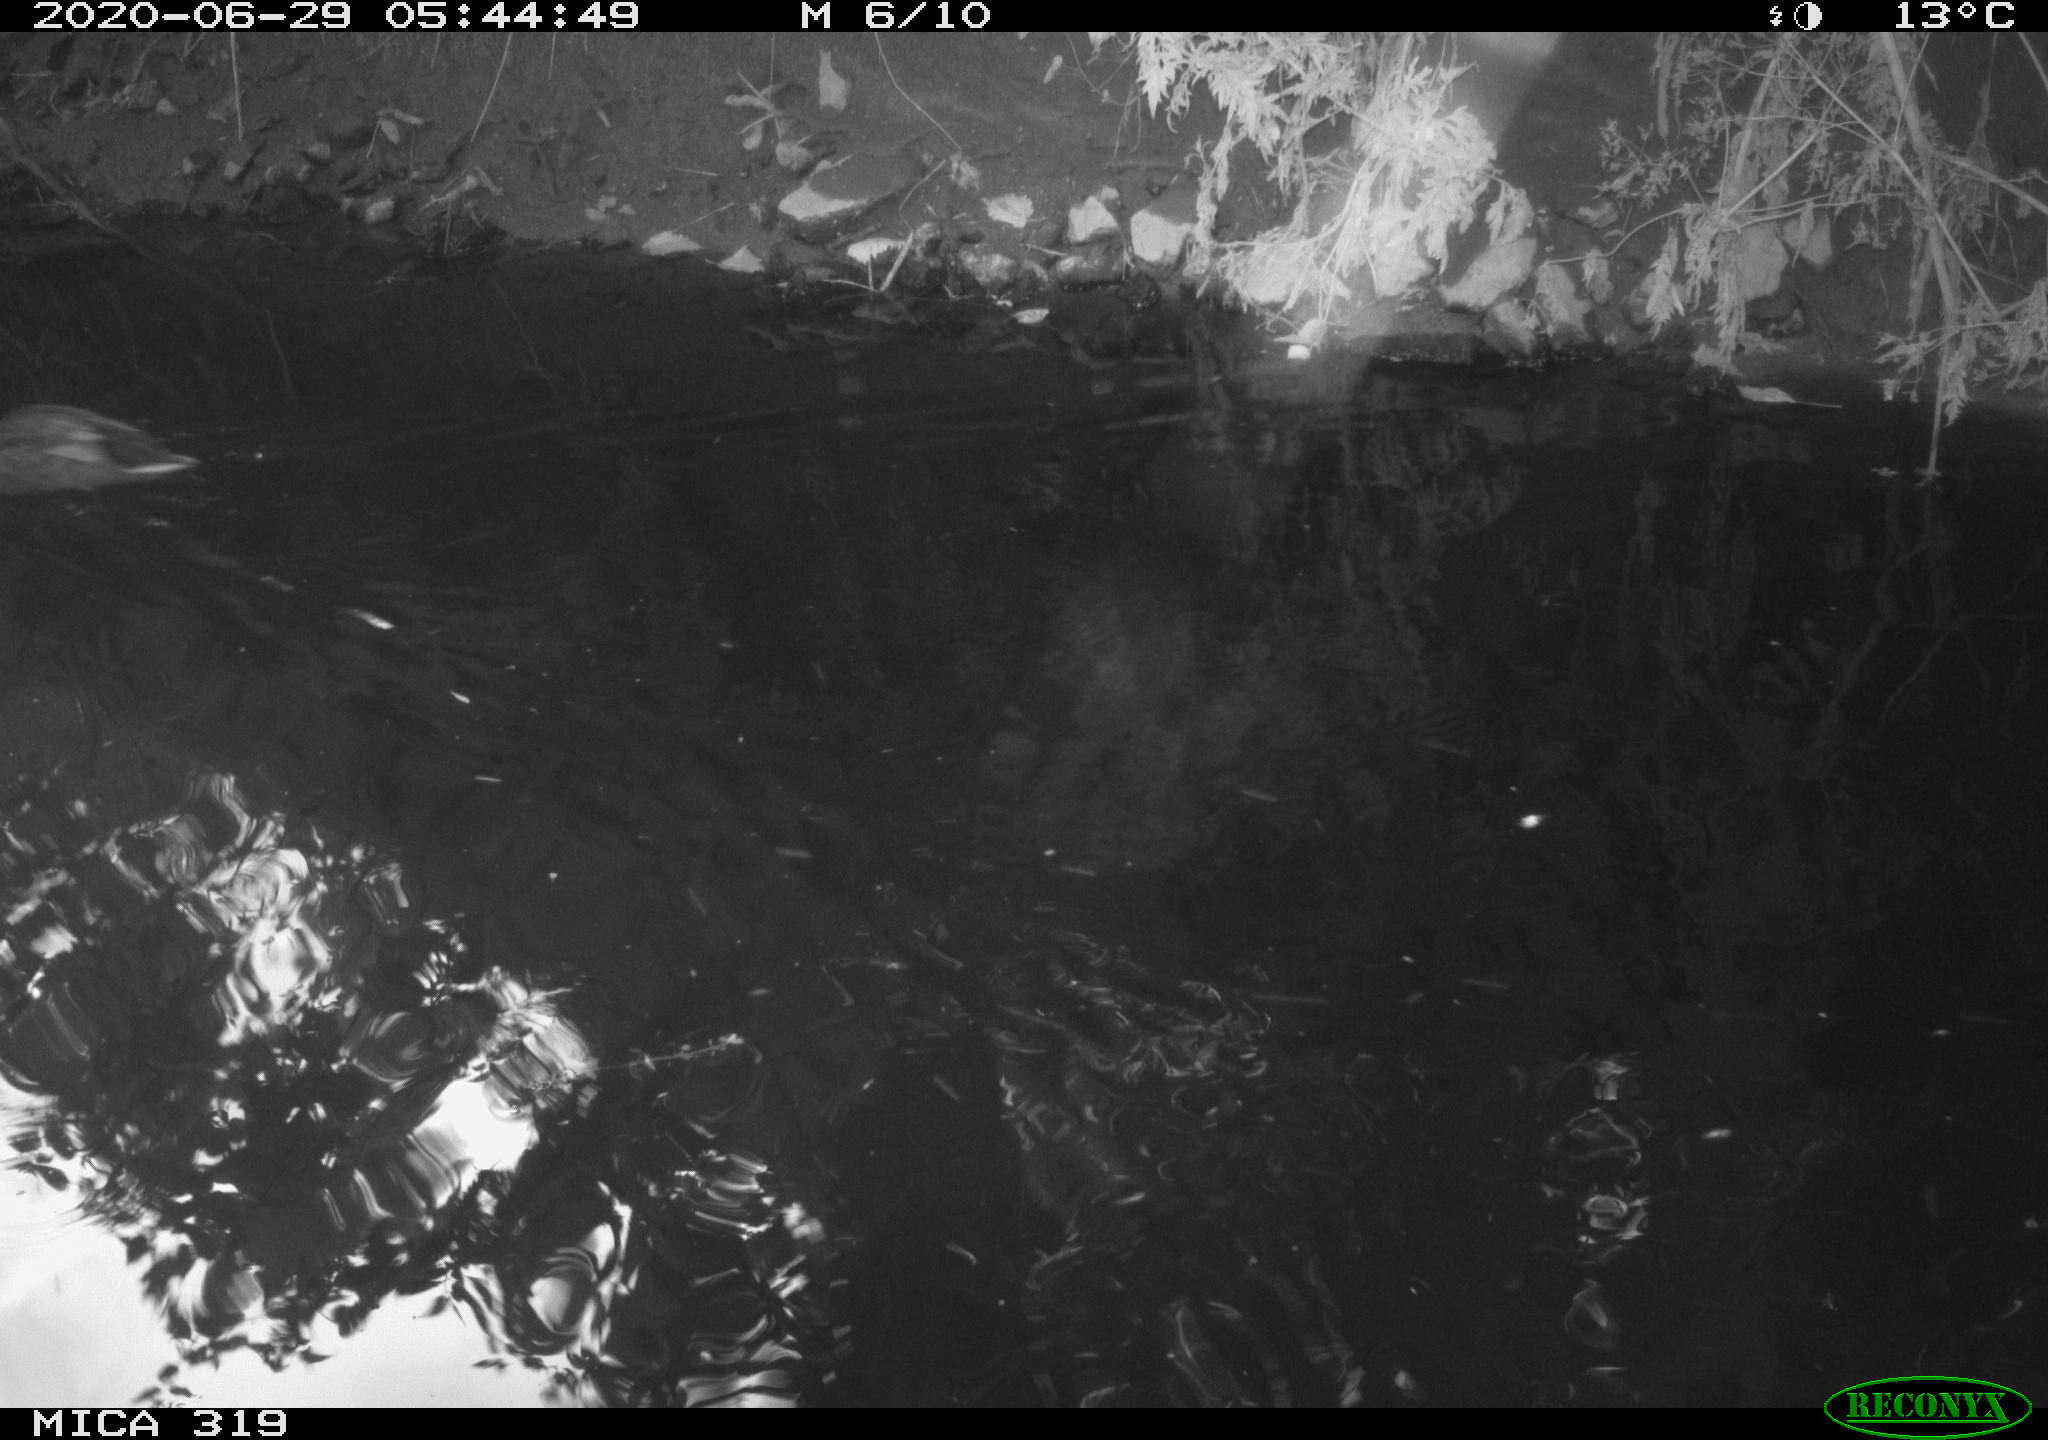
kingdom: Animalia
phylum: Chordata
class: Aves
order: Anseriformes
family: Anatidae
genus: Anas
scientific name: Anas platyrhynchos
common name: Mallard
